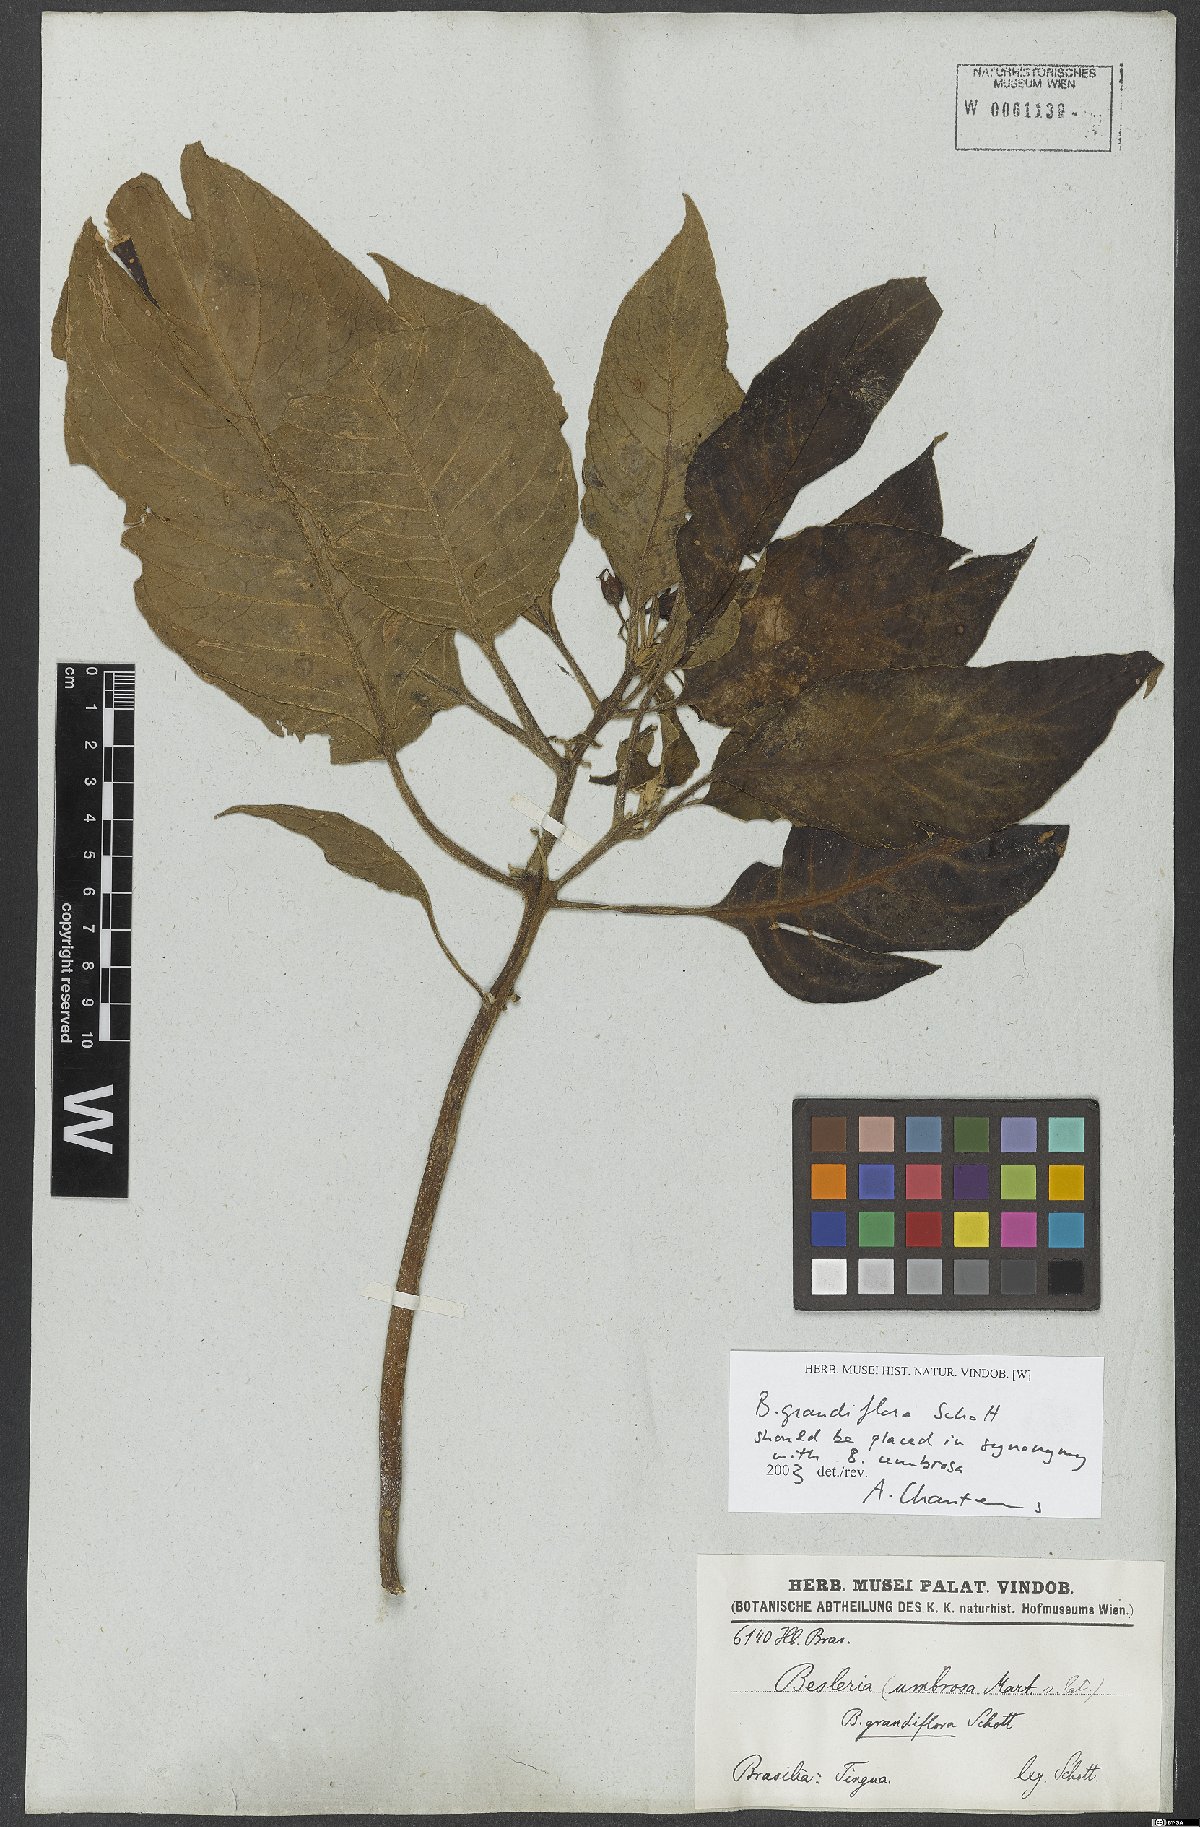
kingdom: Plantae
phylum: Tracheophyta
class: Magnoliopsida
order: Lamiales
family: Gesneriaceae
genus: Kohleria
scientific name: Kohleria tigridia
